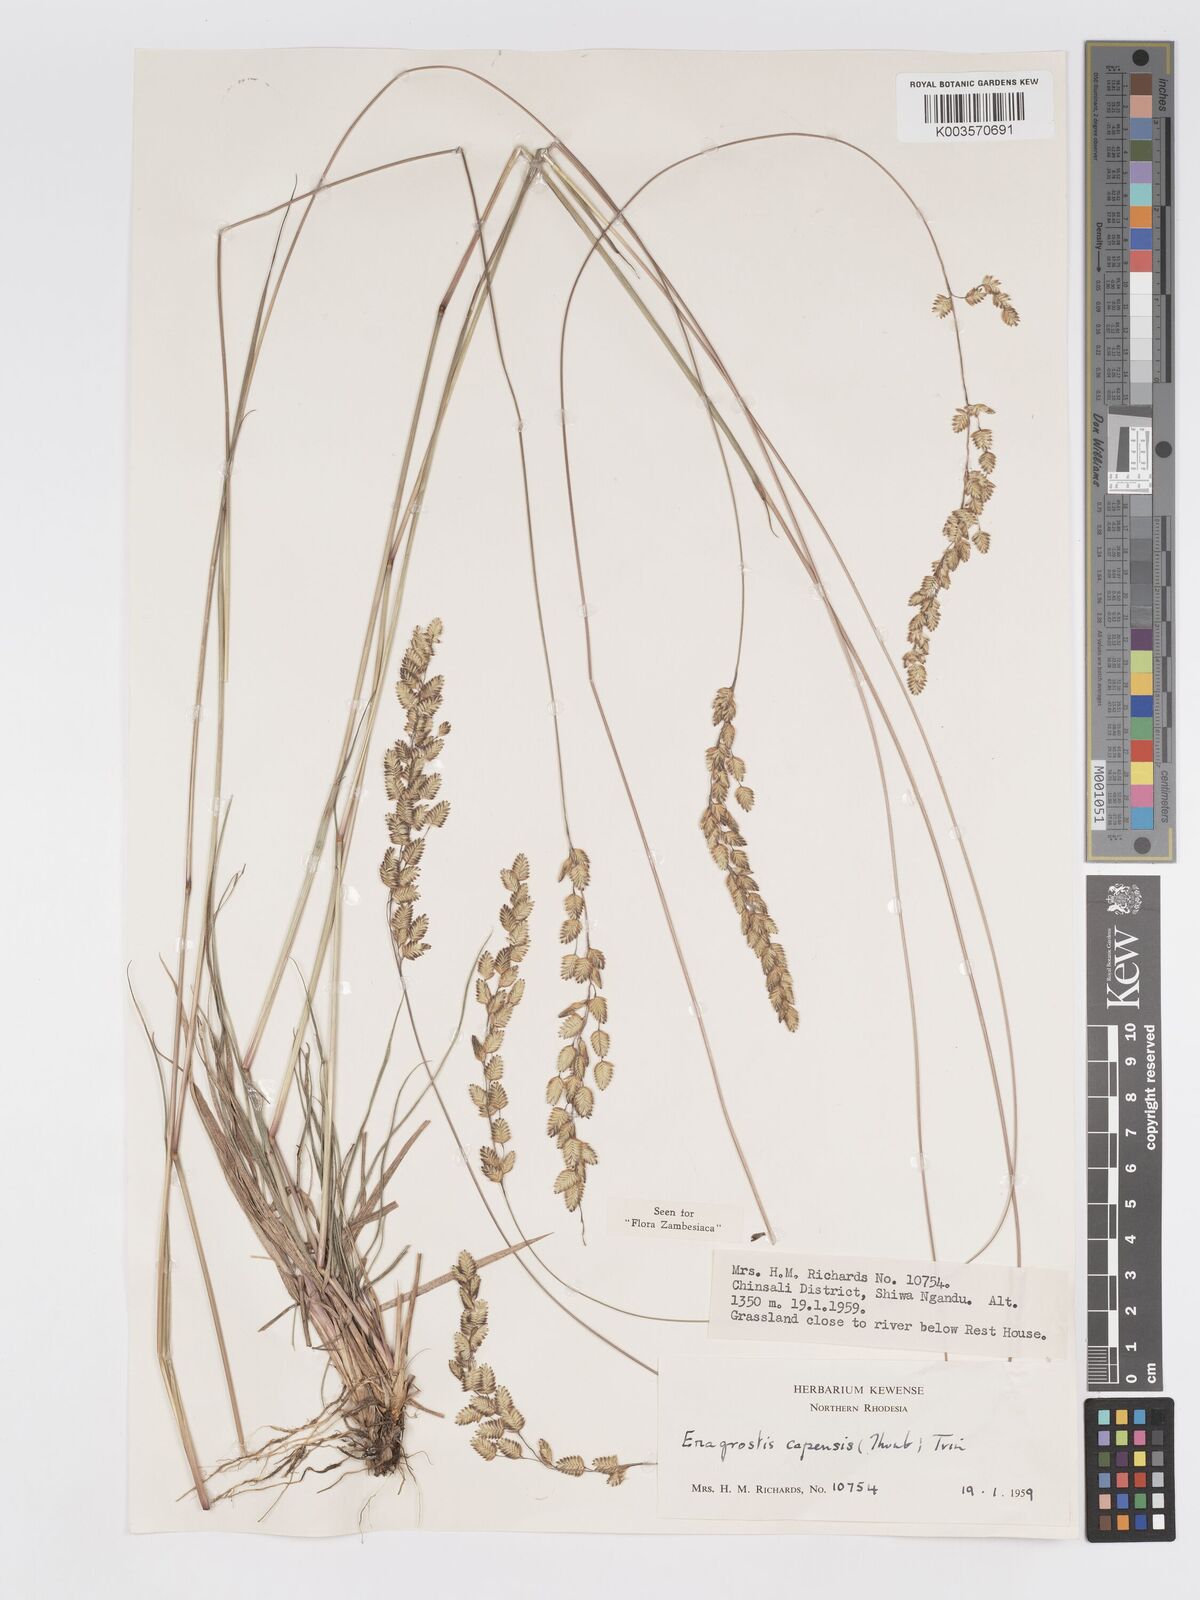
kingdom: Plantae
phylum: Tracheophyta
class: Liliopsida
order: Poales
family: Poaceae
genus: Eragrostis
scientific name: Eragrostis capensis
